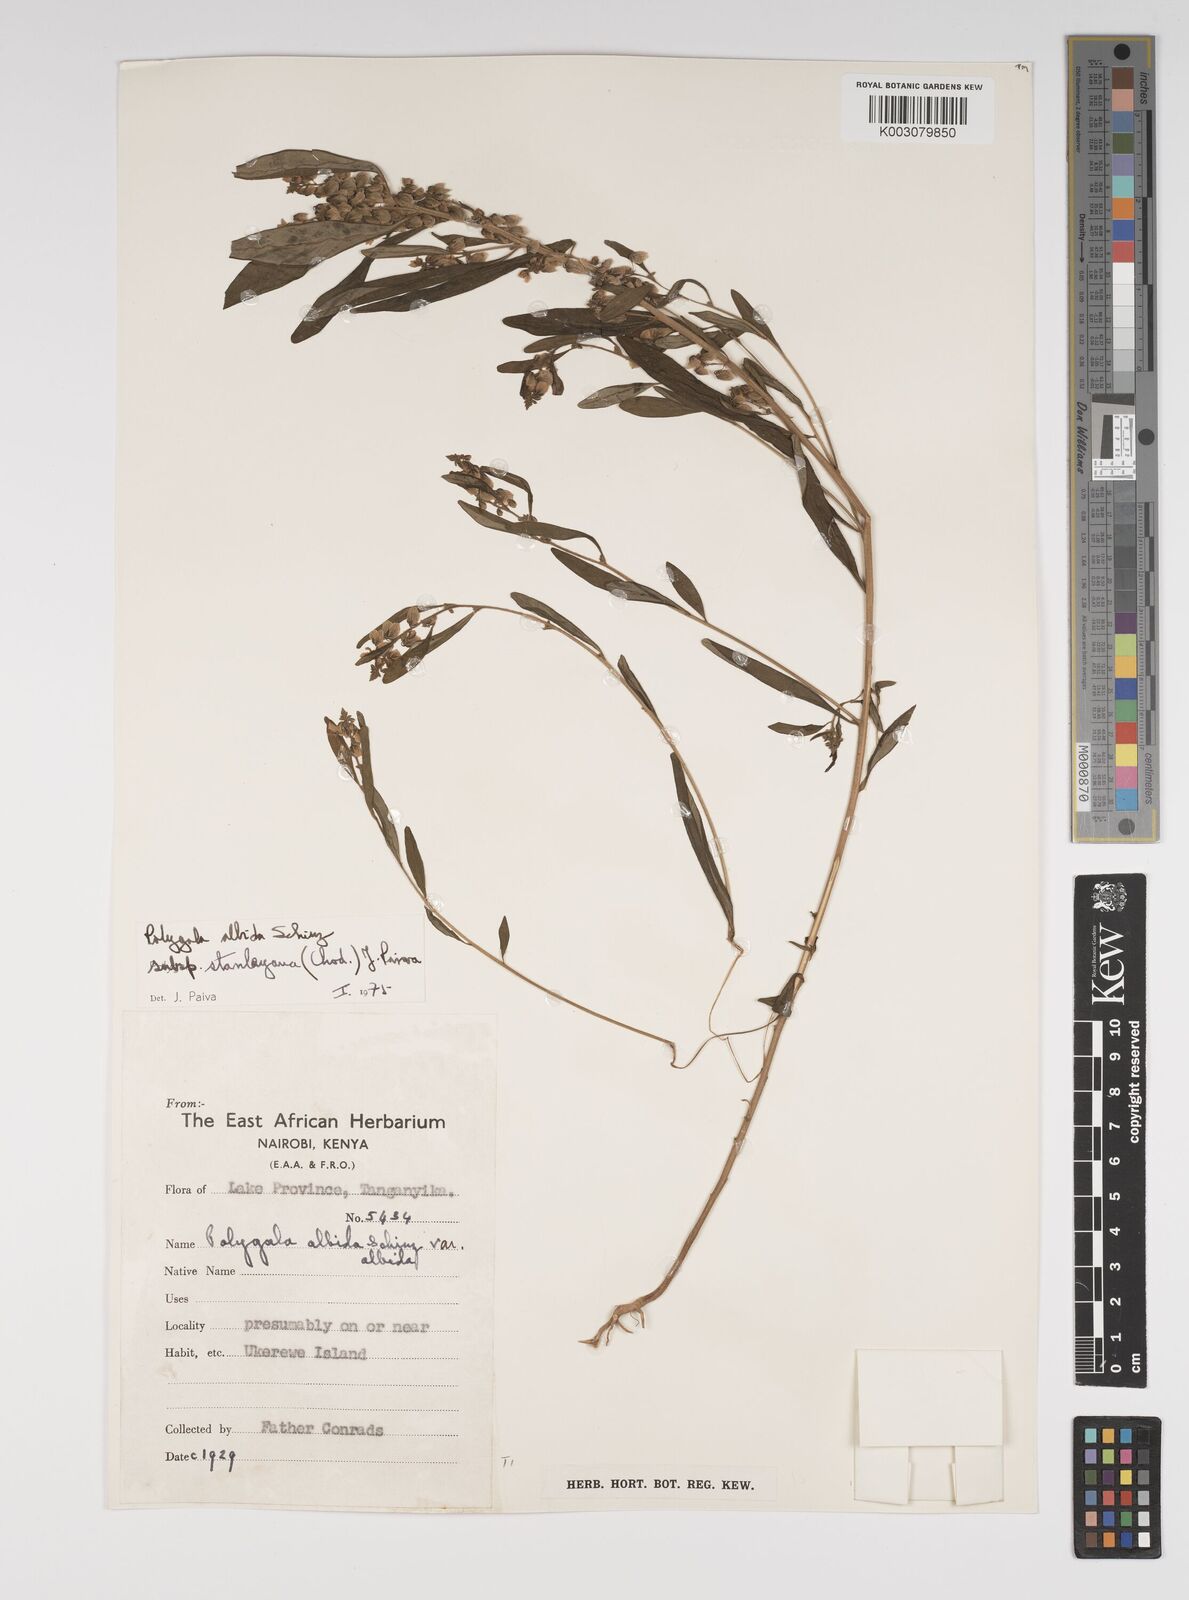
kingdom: Plantae
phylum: Tracheophyta
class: Magnoliopsida
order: Fabales
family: Polygalaceae
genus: Polygala
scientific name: Polygala albida
